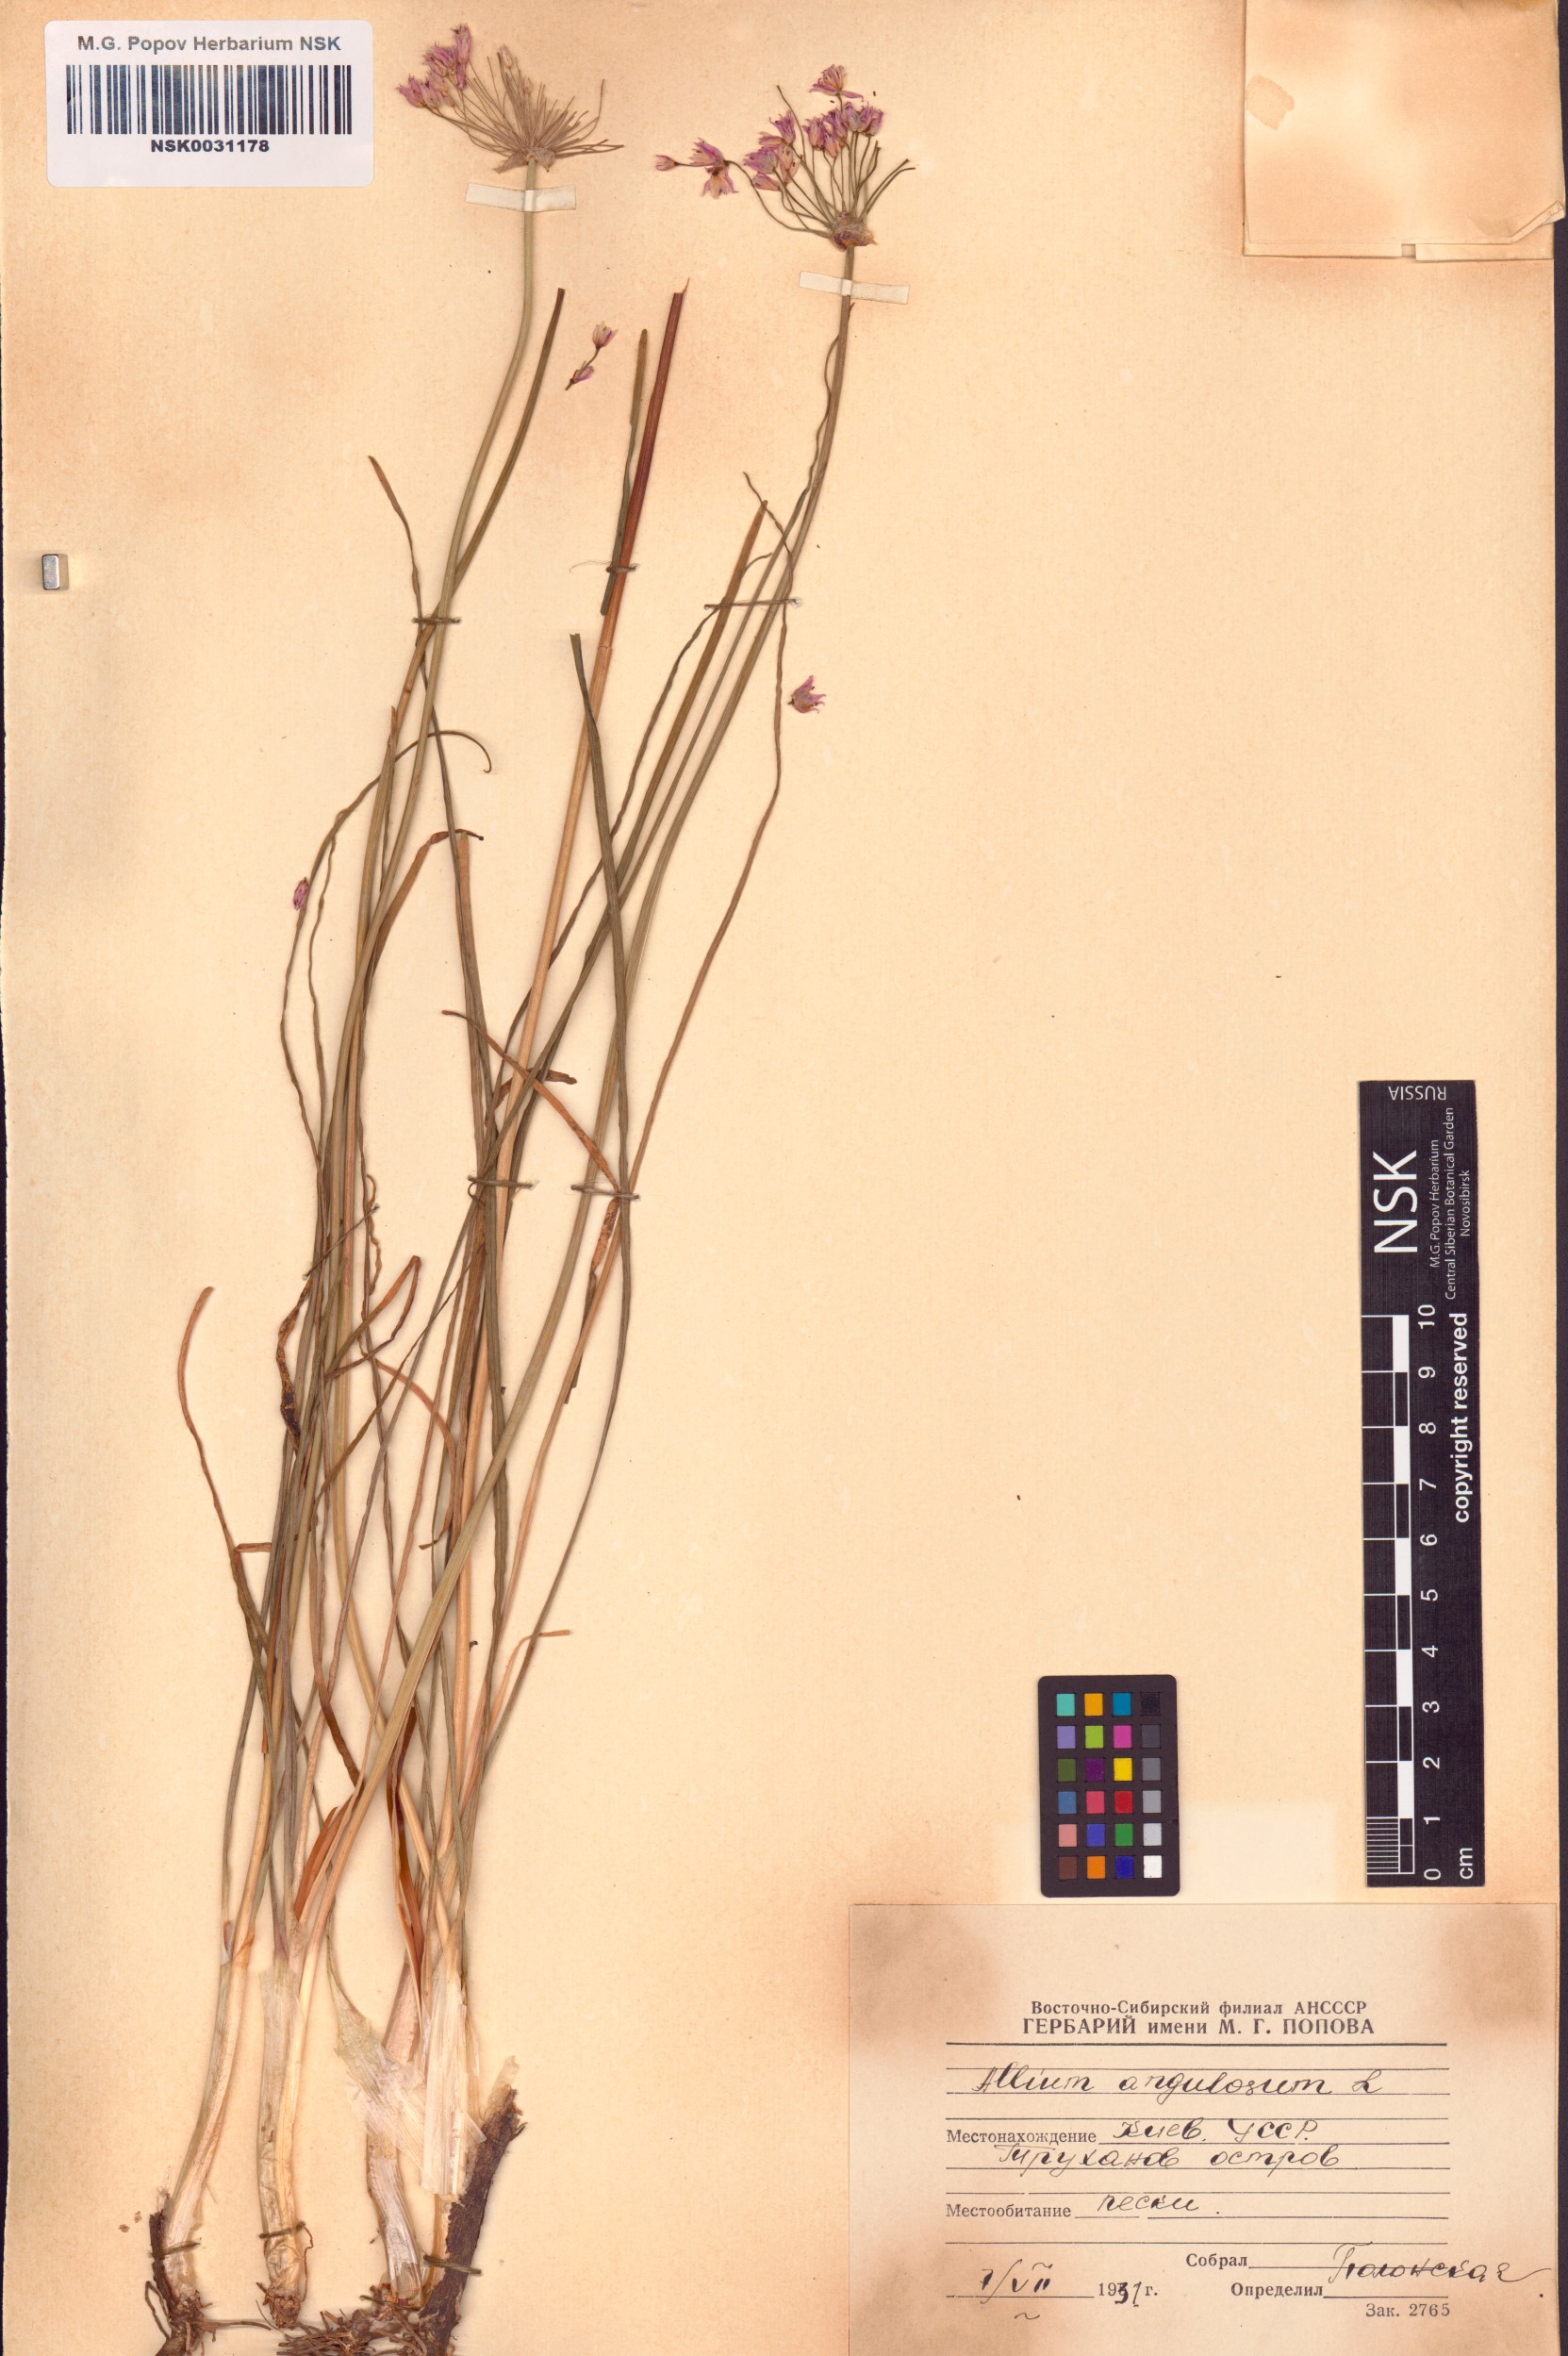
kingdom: Plantae
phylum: Tracheophyta
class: Liliopsida
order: Asparagales
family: Amaryllidaceae
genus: Allium
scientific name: Allium angulosum
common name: Mouse garlic
